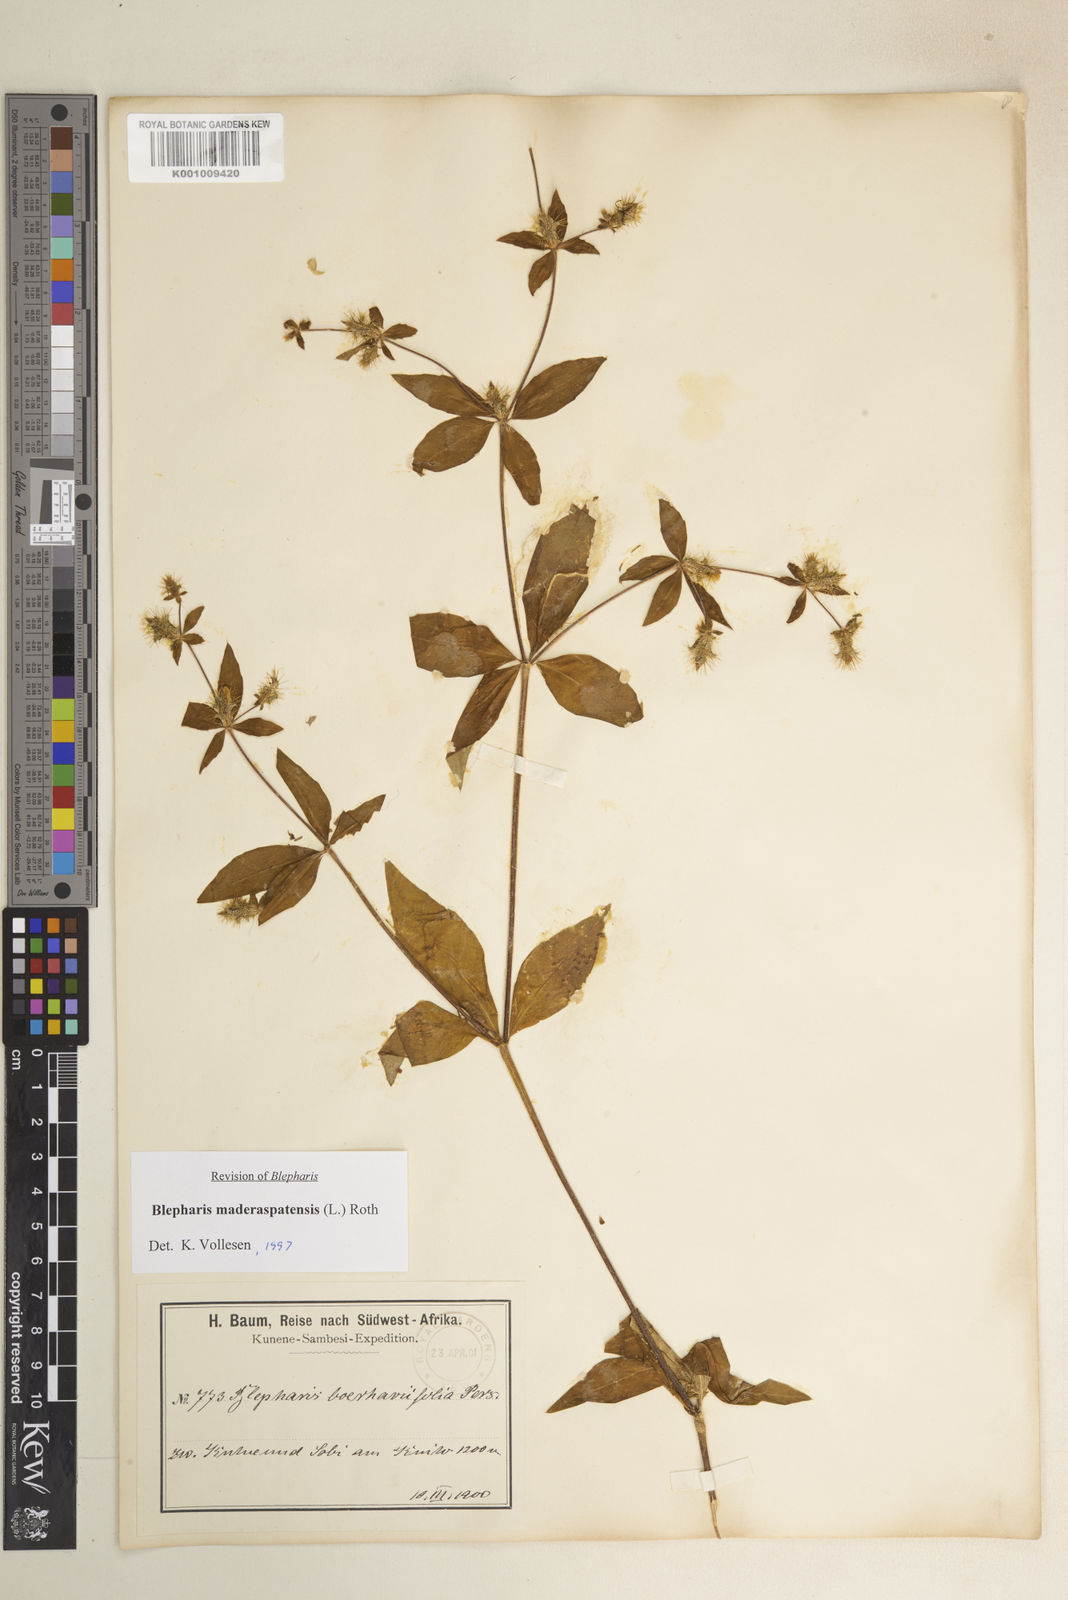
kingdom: Plantae
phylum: Tracheophyta
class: Magnoliopsida
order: Lamiales
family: Acanthaceae
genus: Blepharis
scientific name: Blepharis maderaspatensis
